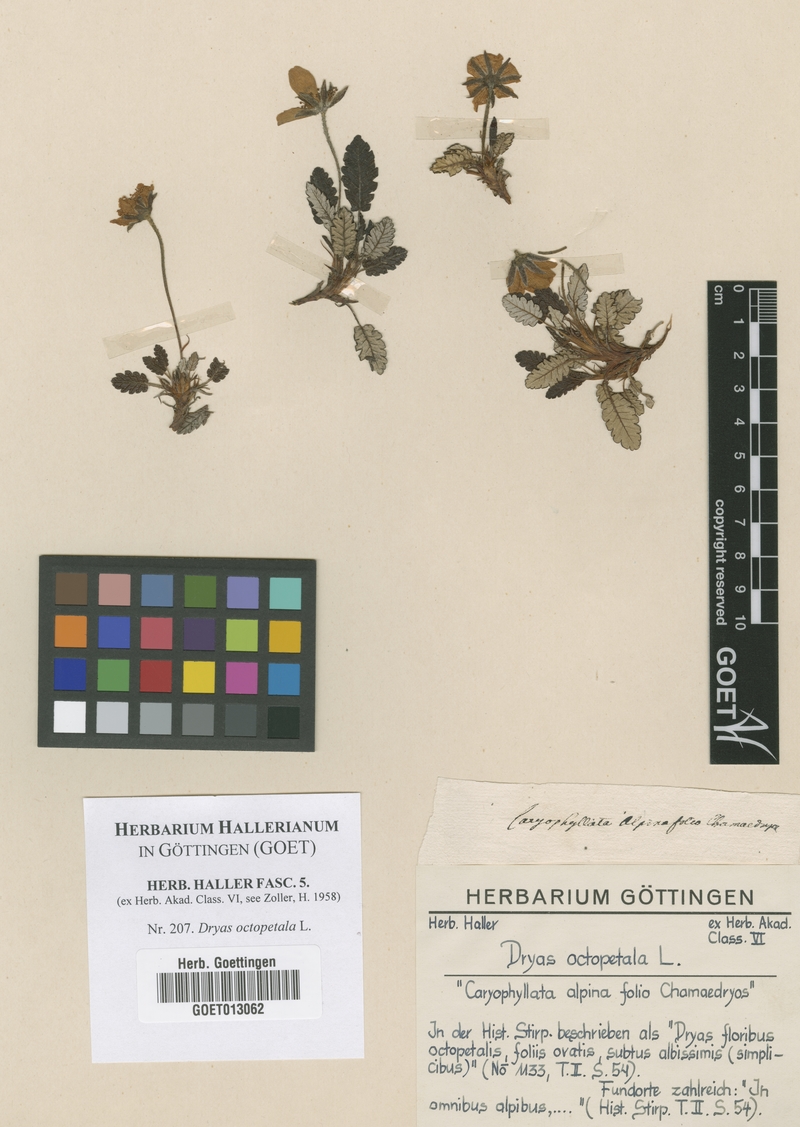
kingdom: Plantae
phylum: Tracheophyta
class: Magnoliopsida
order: Rosales
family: Rosaceae
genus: Dryas
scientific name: Dryas octopetala
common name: Eight-petal mountain-avens
